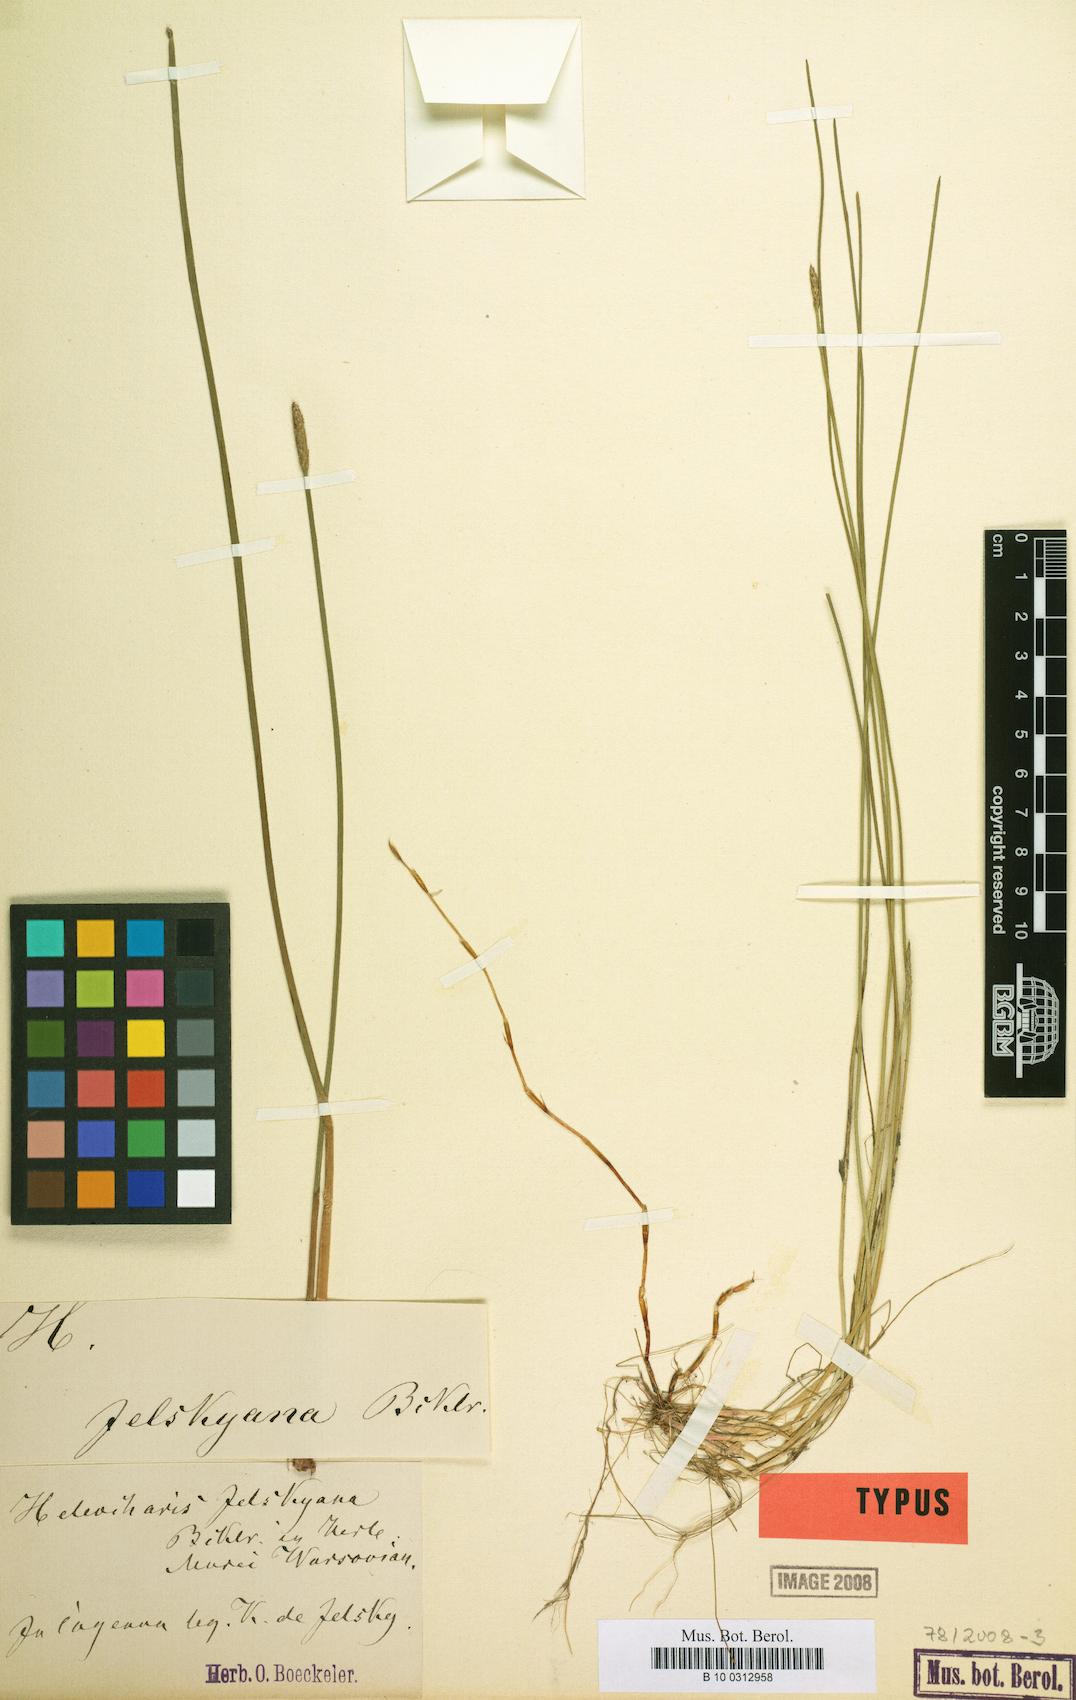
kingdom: Plantae
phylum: Tracheophyta
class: Liliopsida
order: Poales
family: Cyperaceae
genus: Eleocharis
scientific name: Eleocharis jelskiana
